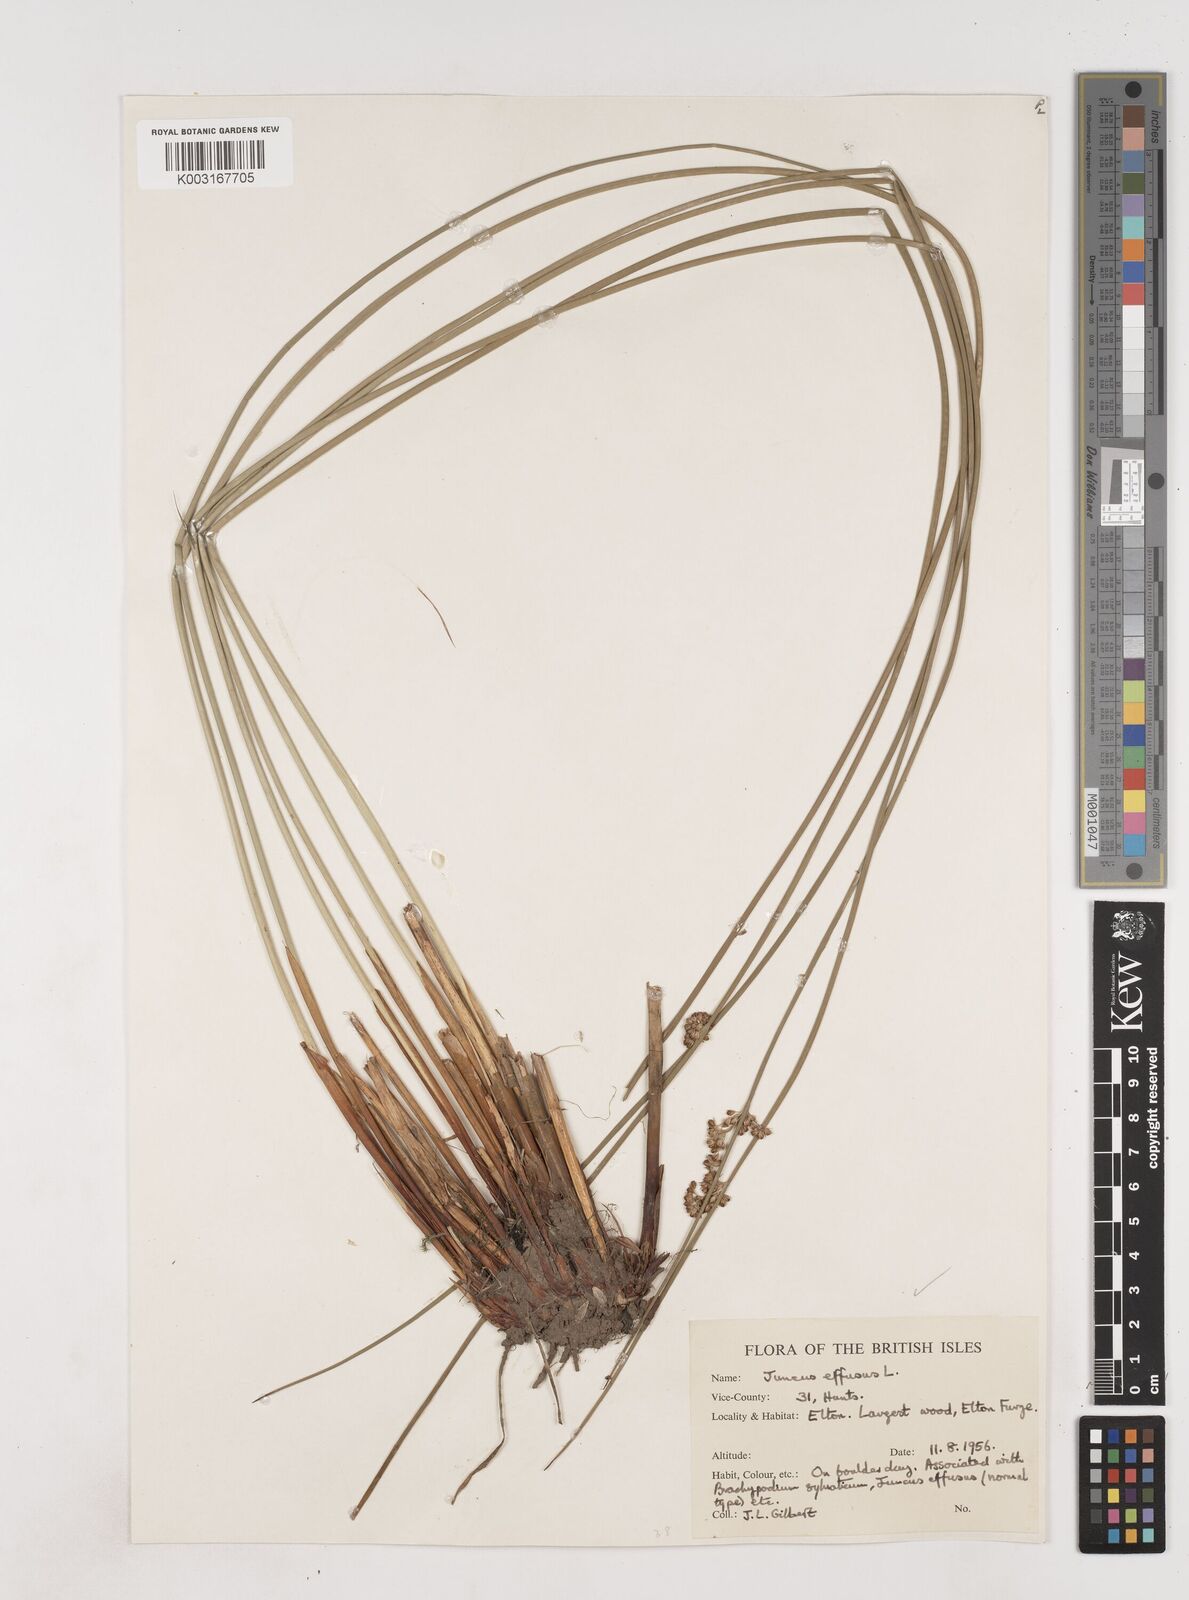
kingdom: Plantae
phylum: Tracheophyta
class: Liliopsida
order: Poales
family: Juncaceae
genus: Juncus
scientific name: Juncus effusus
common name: Soft rush
